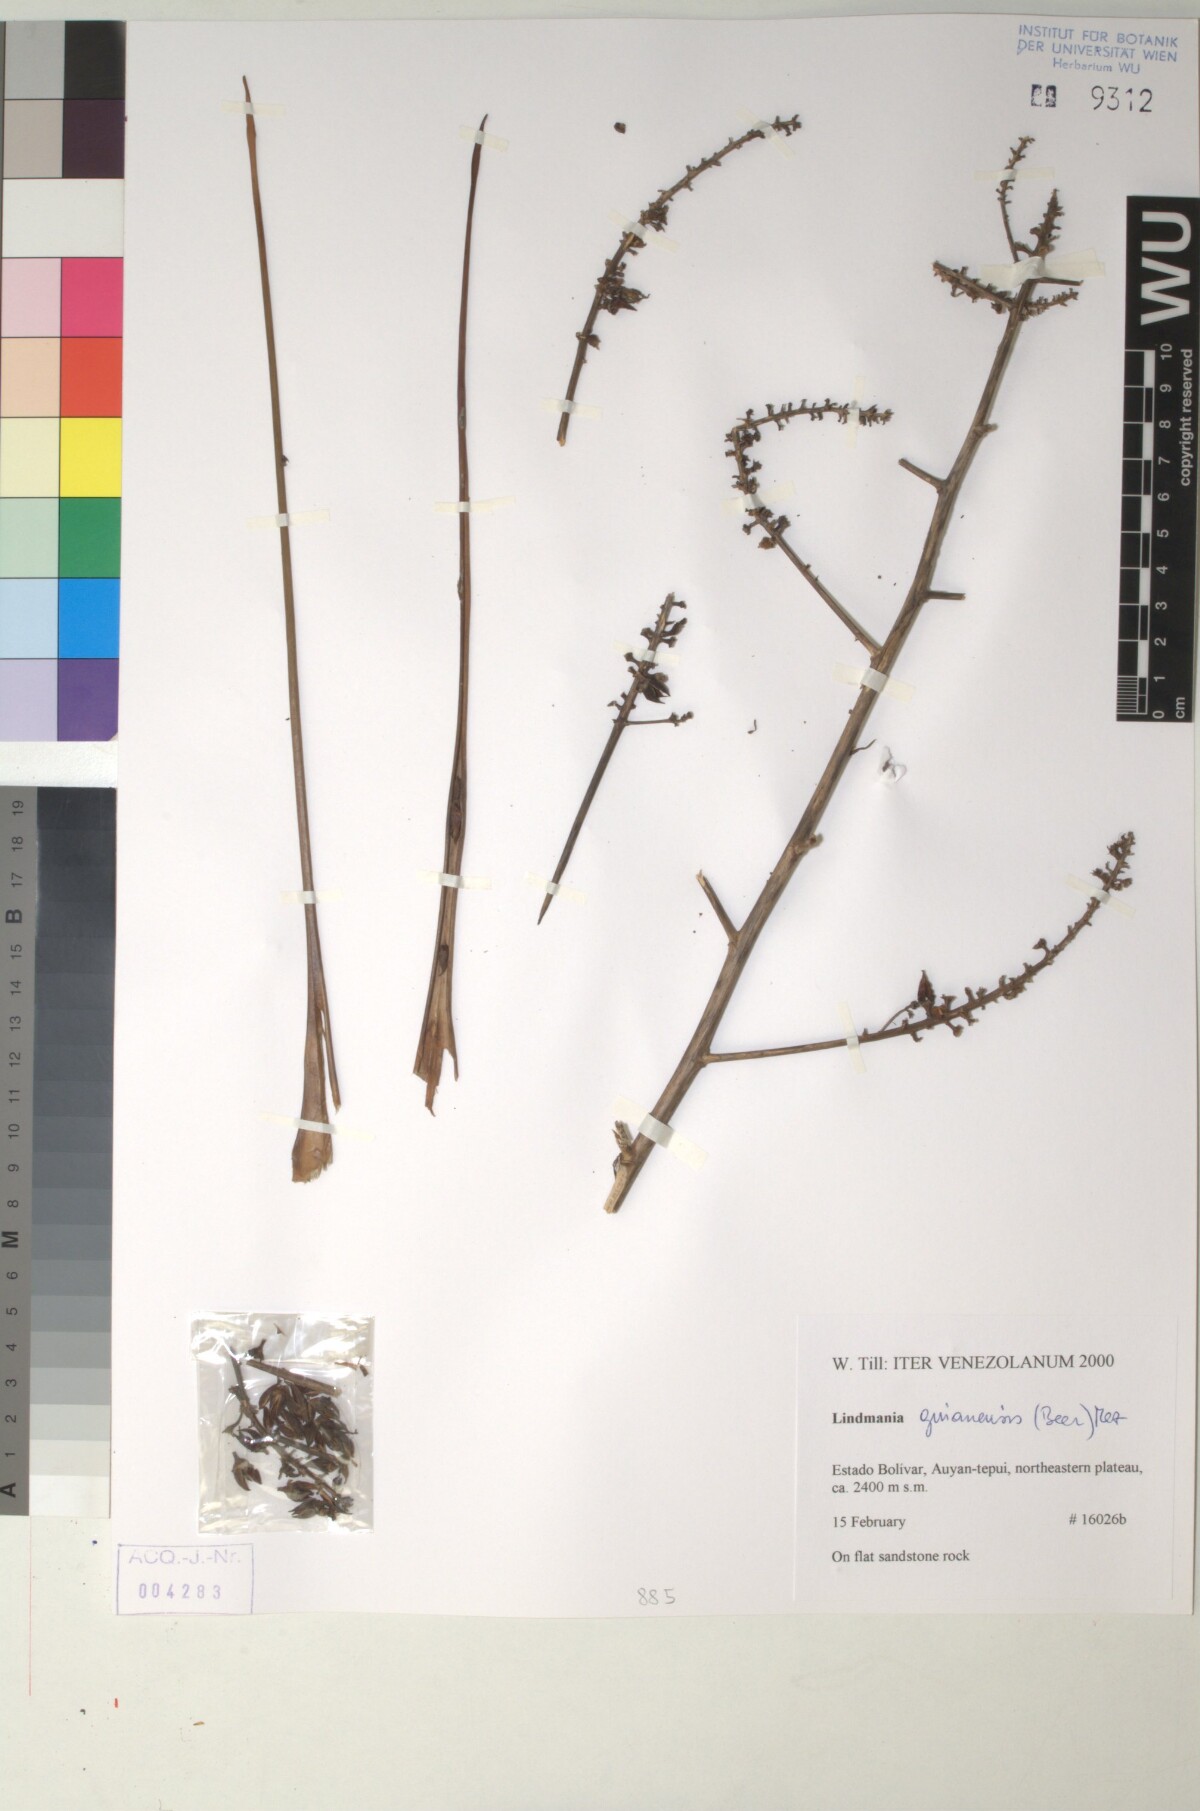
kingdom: Plantae
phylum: Tracheophyta
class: Liliopsida
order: Poales
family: Bromeliaceae
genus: Lindmania
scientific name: Lindmania guianensis
